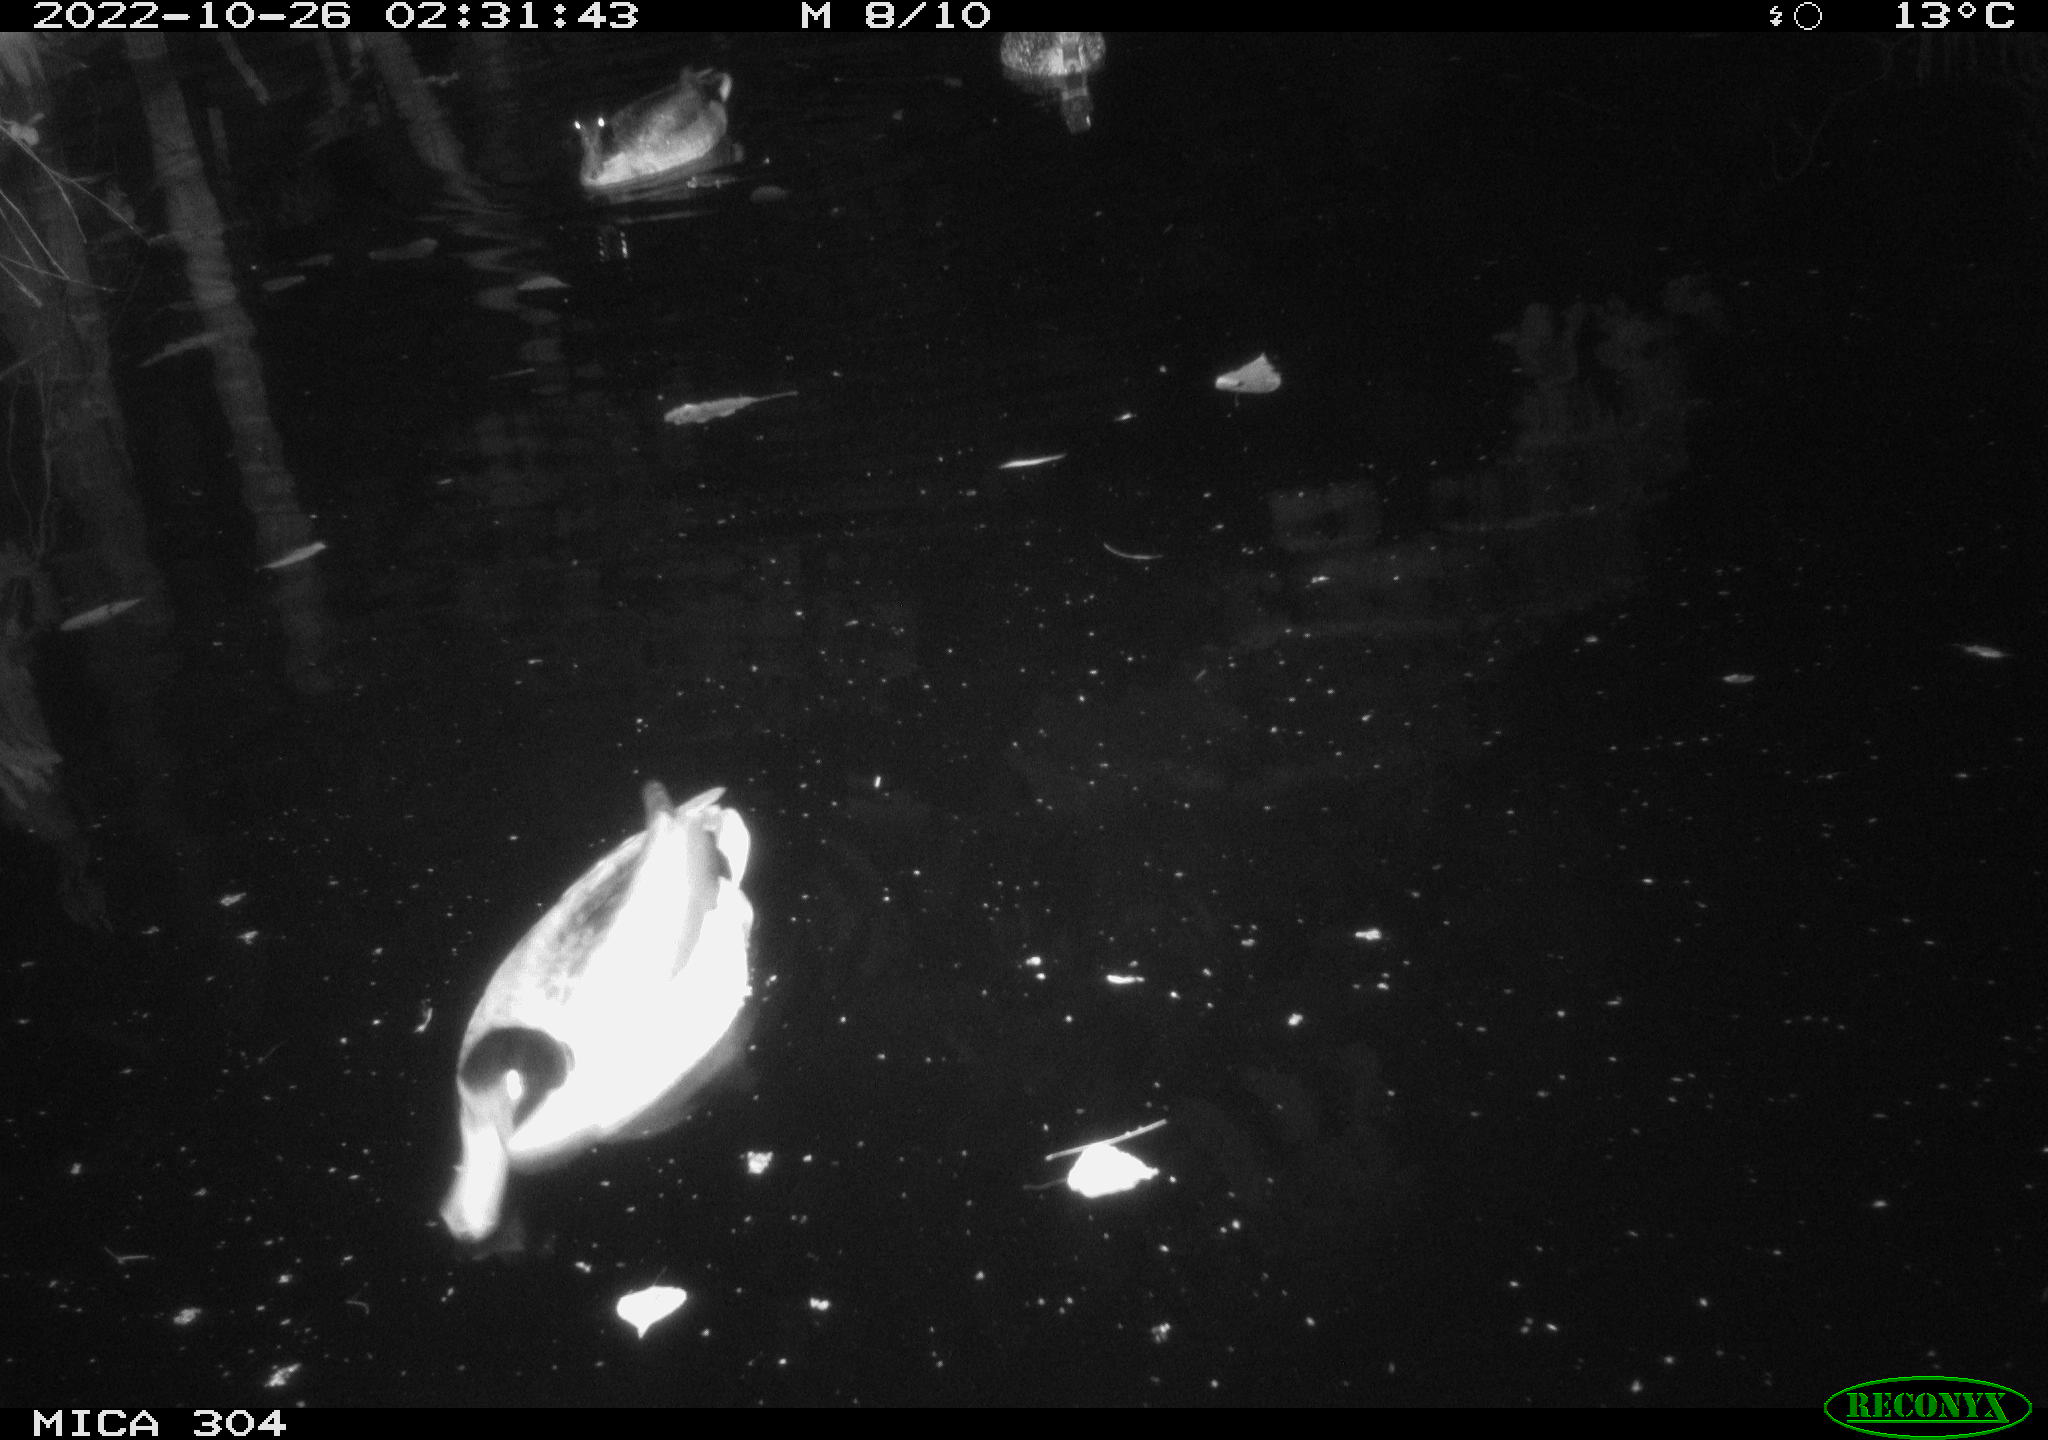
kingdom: Animalia
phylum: Chordata
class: Aves
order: Anseriformes
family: Anatidae
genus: Anas
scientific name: Anas
